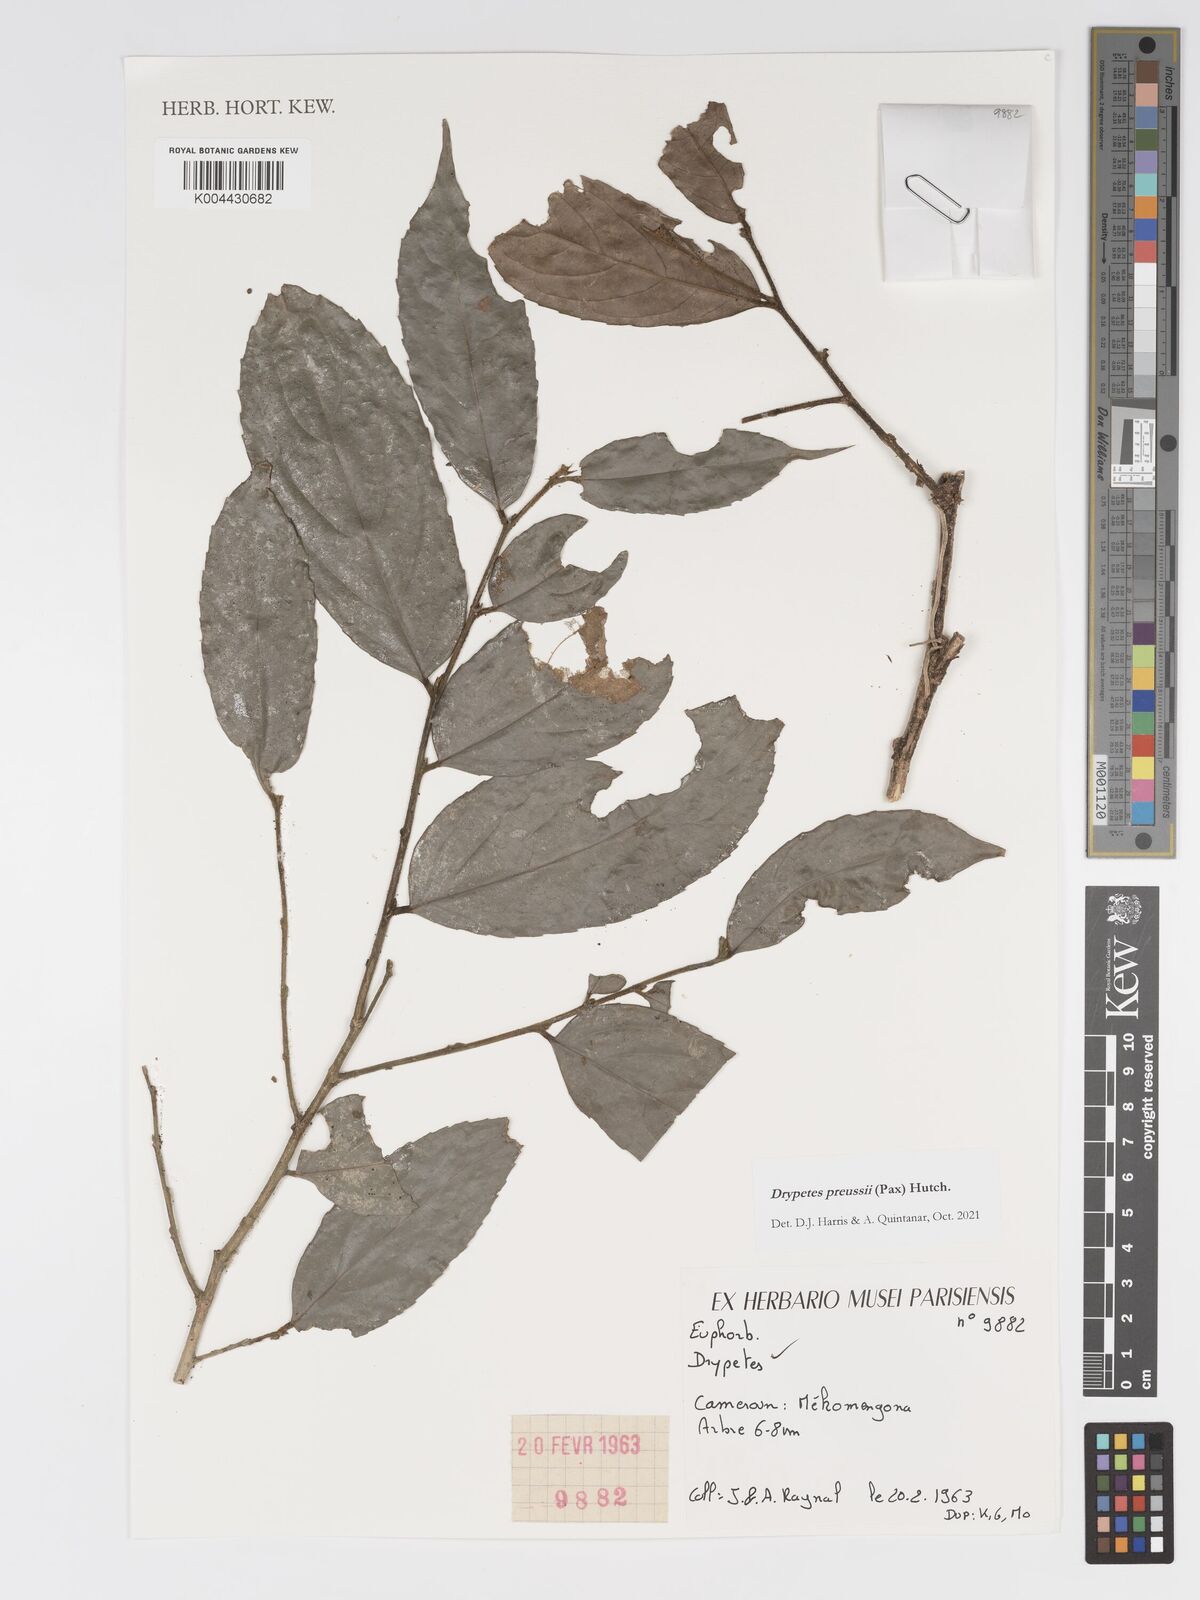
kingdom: Plantae
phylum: Tracheophyta
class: Magnoliopsida
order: Malpighiales
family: Putranjivaceae
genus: Drypetes
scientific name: Drypetes preussii
